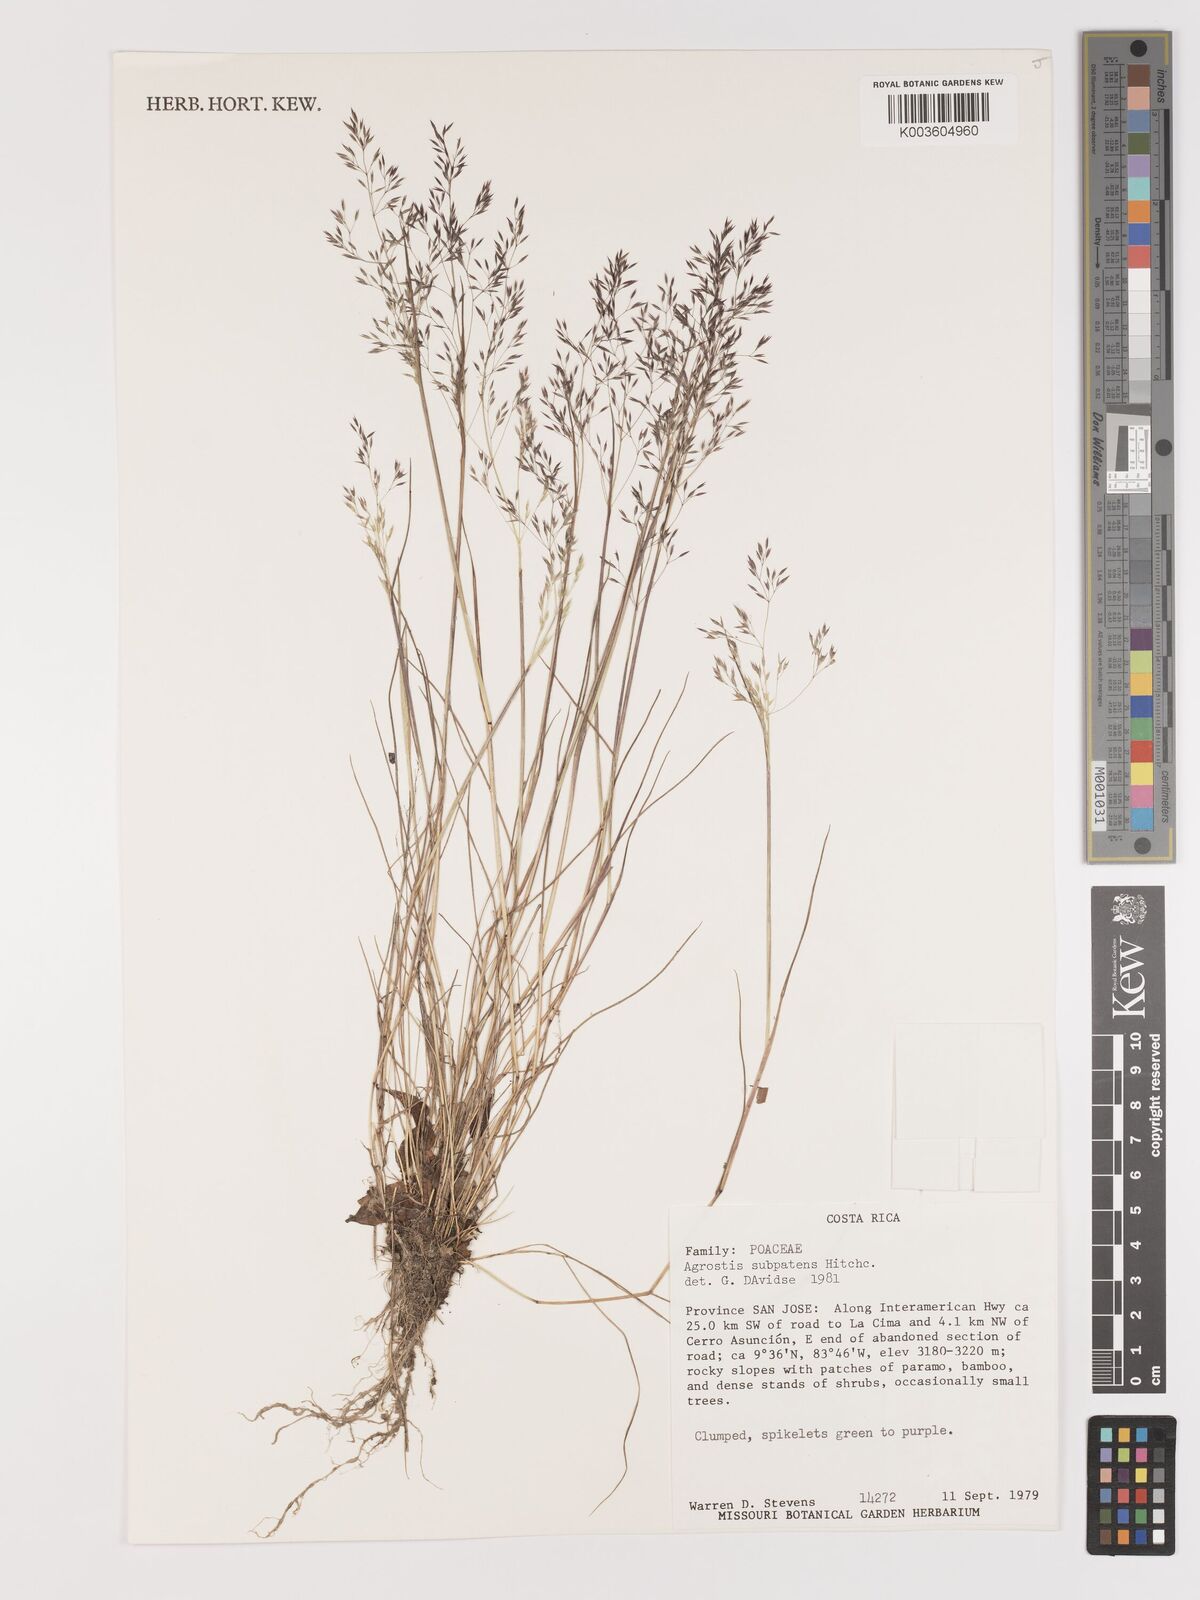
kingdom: Plantae
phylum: Tracheophyta
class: Liliopsida
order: Poales
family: Poaceae
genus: Agrostis
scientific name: Agrostis subpatens
